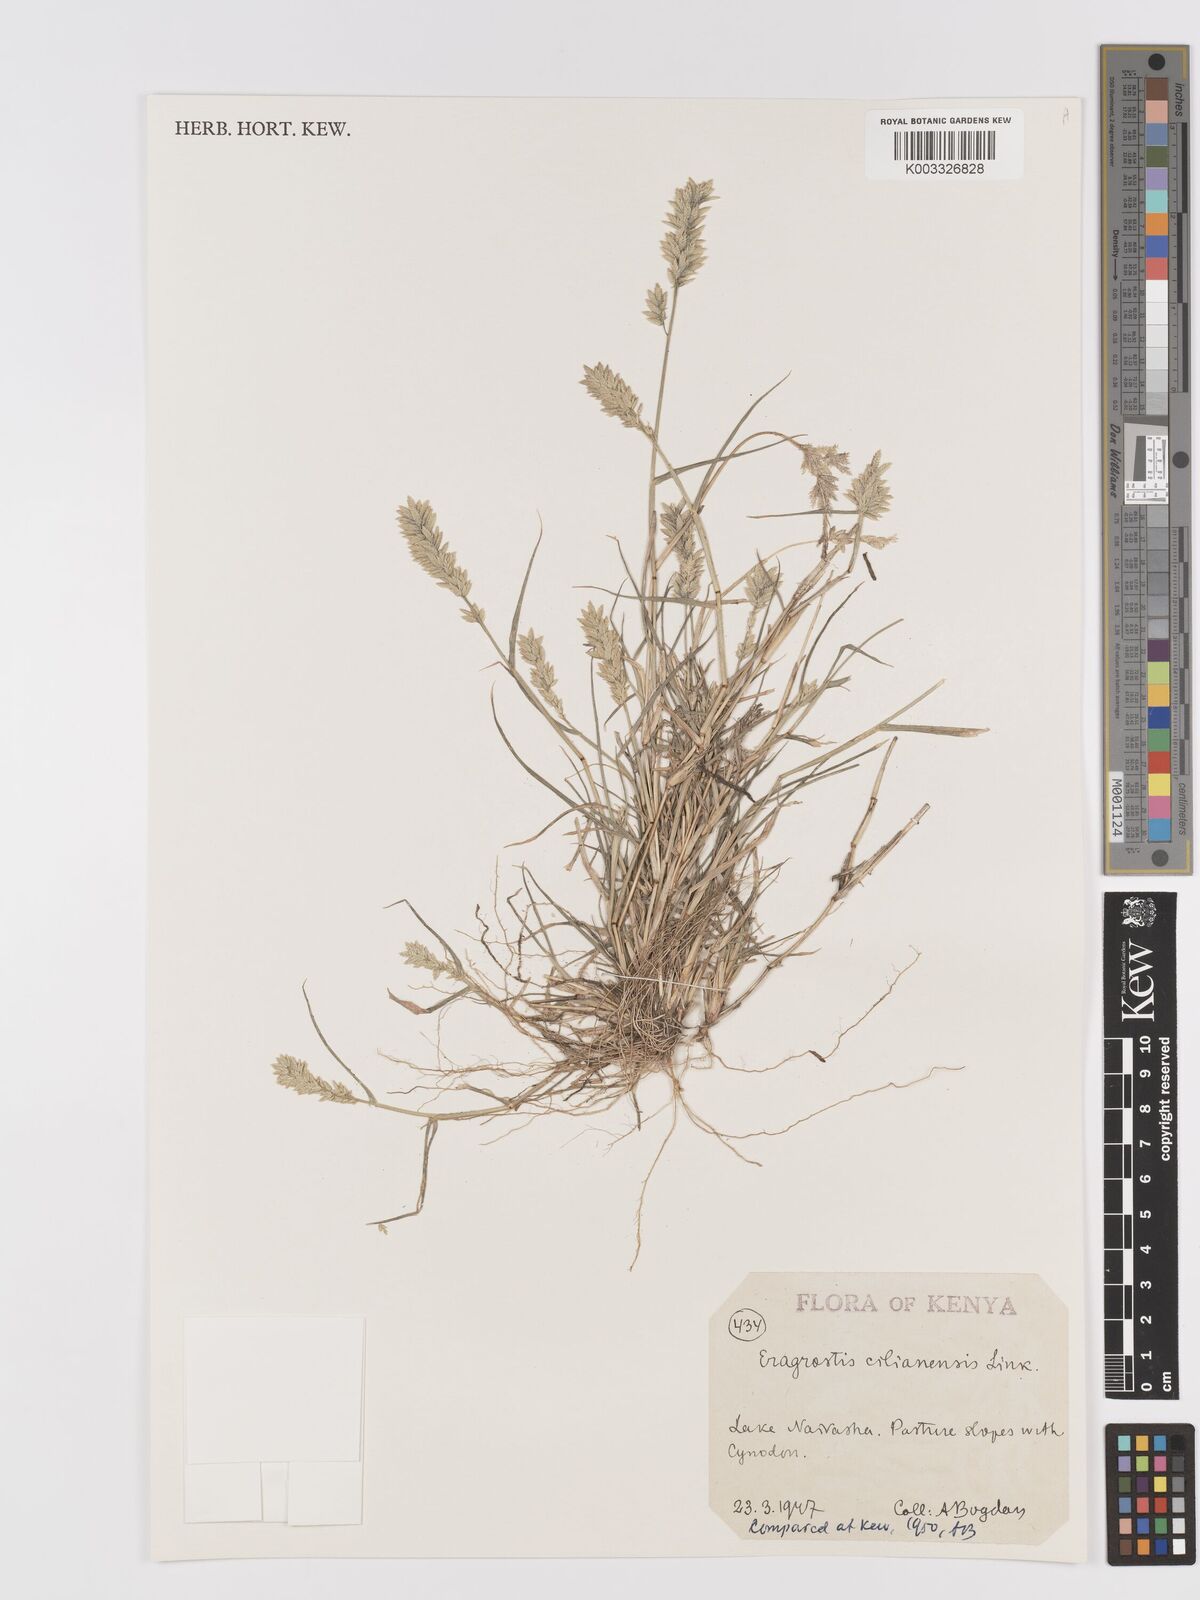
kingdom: Plantae
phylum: Tracheophyta
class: Liliopsida
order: Poales
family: Poaceae
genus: Eragrostis
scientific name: Eragrostis cilianensis
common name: Stinkgrass
